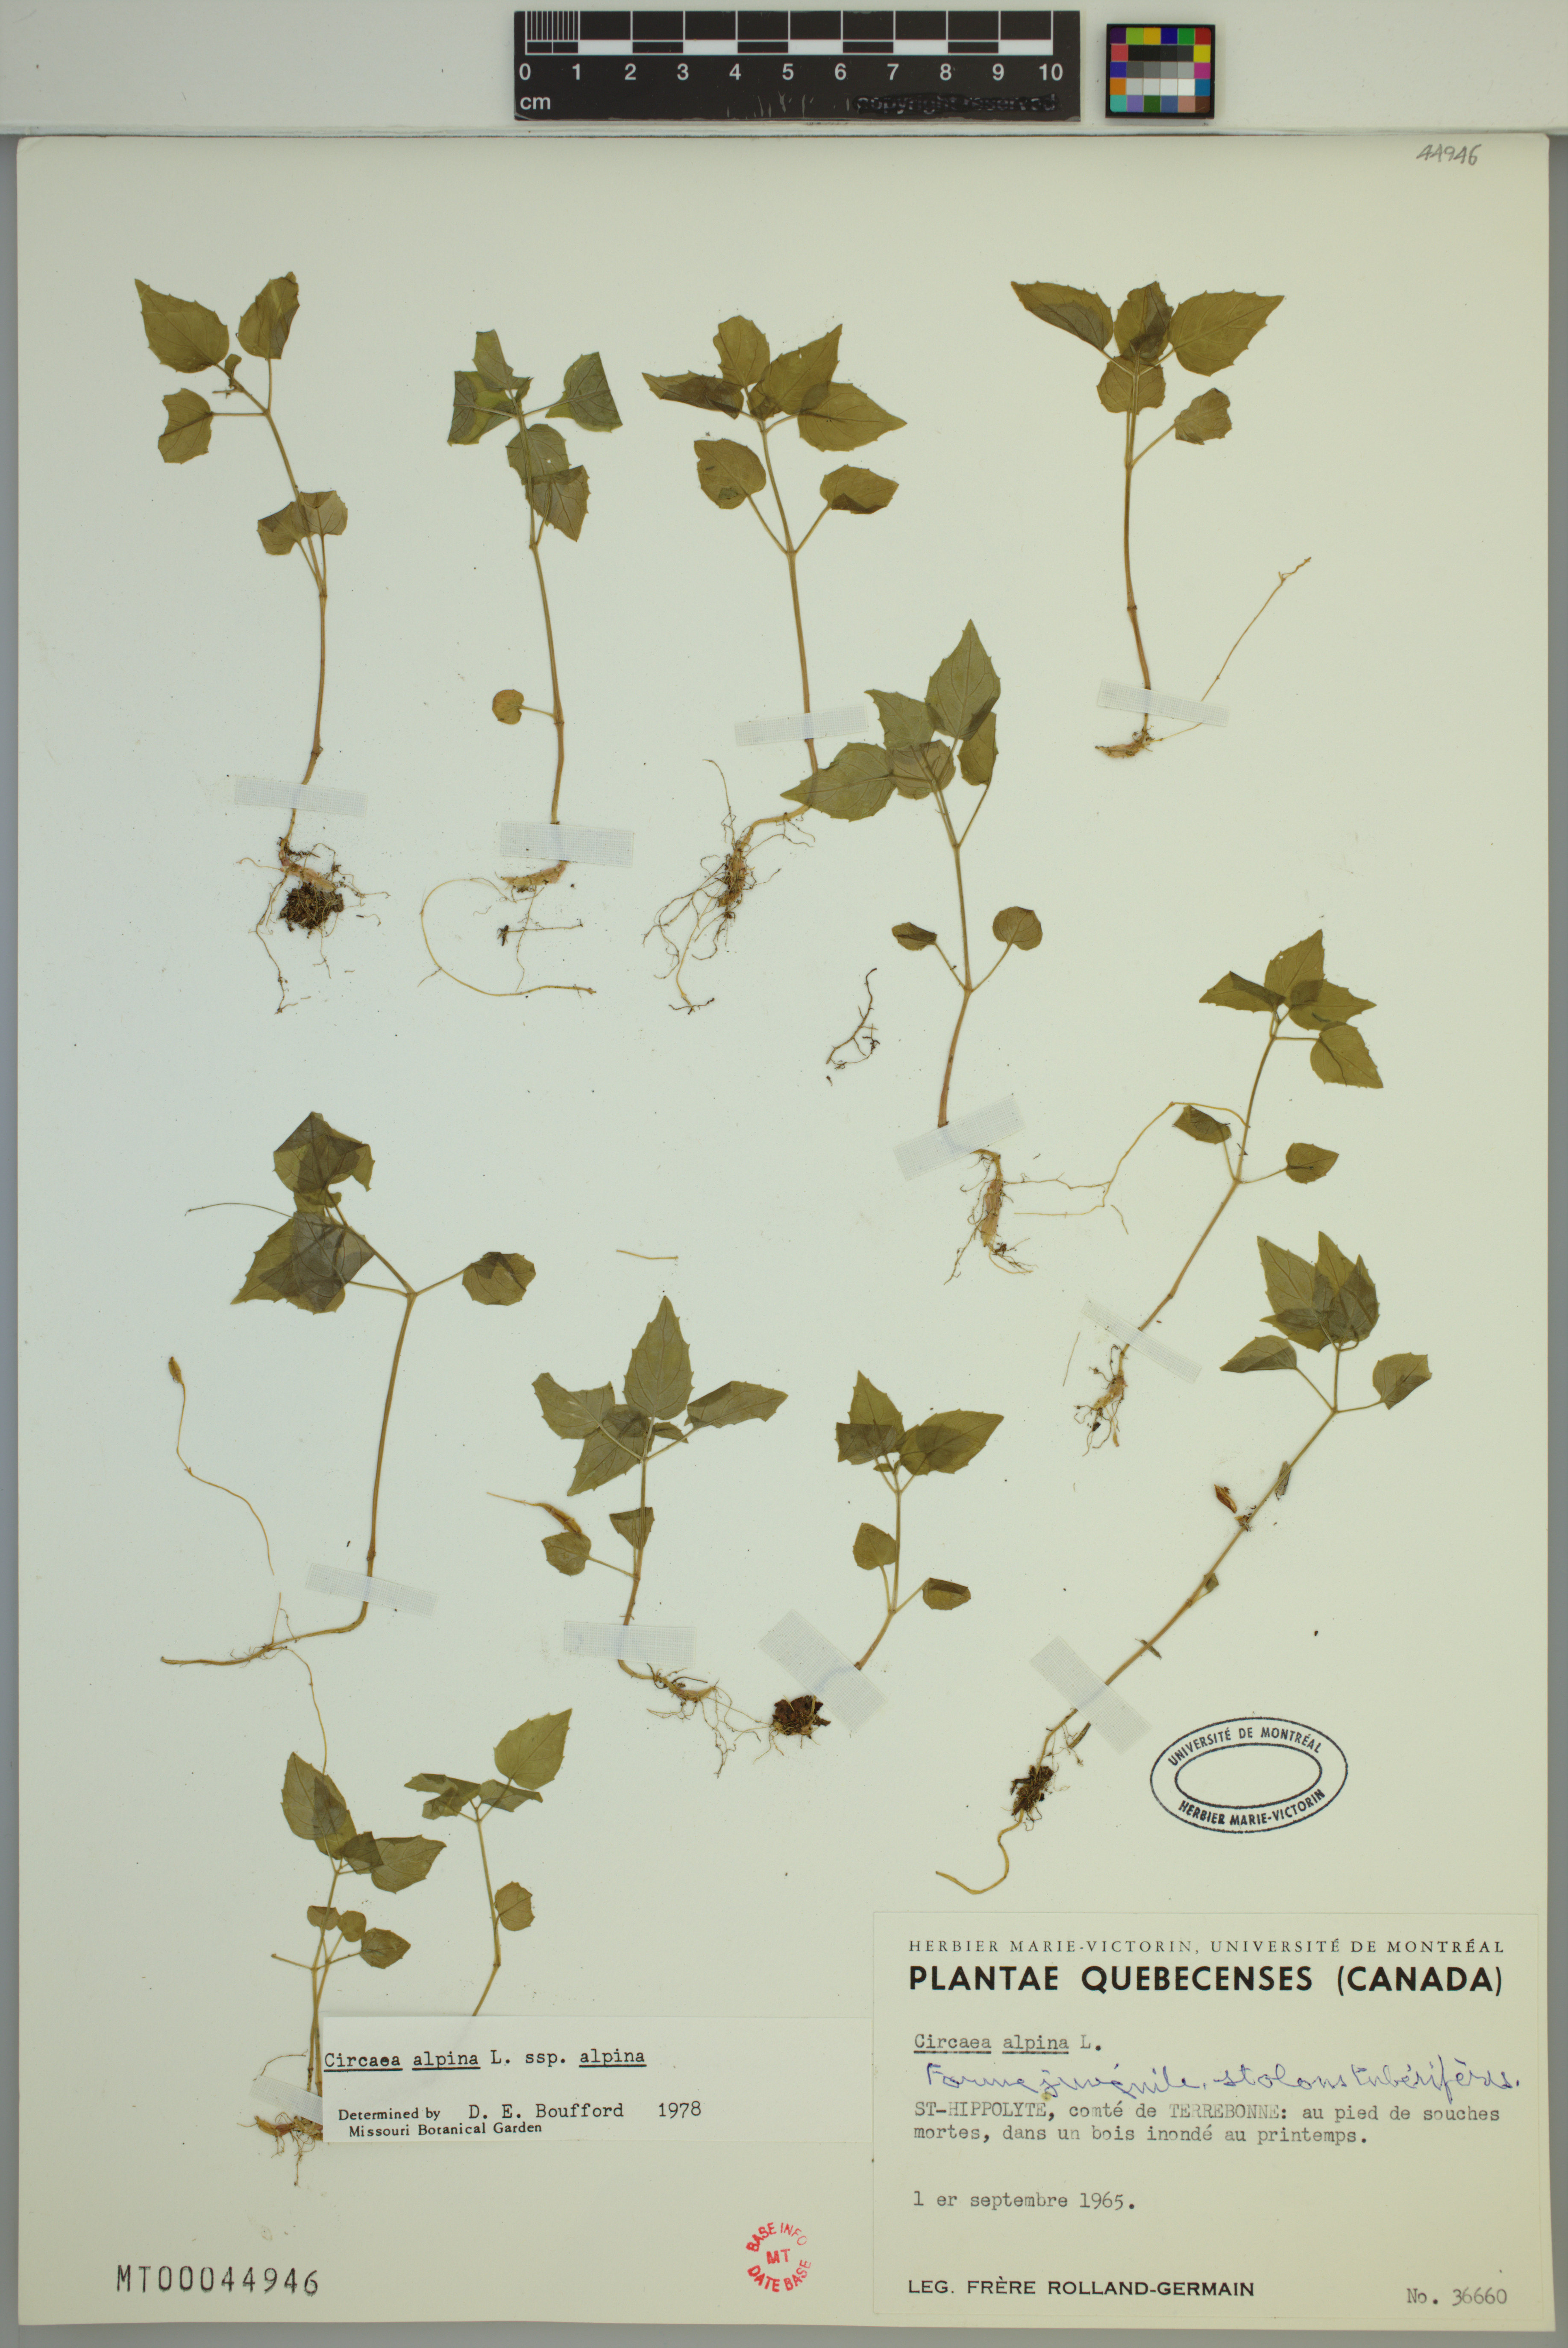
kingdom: Plantae
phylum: Tracheophyta
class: Magnoliopsida
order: Myrtales
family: Onagraceae
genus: Circaea
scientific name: Circaea alpina
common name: Alpine enchanter's-nightshade
